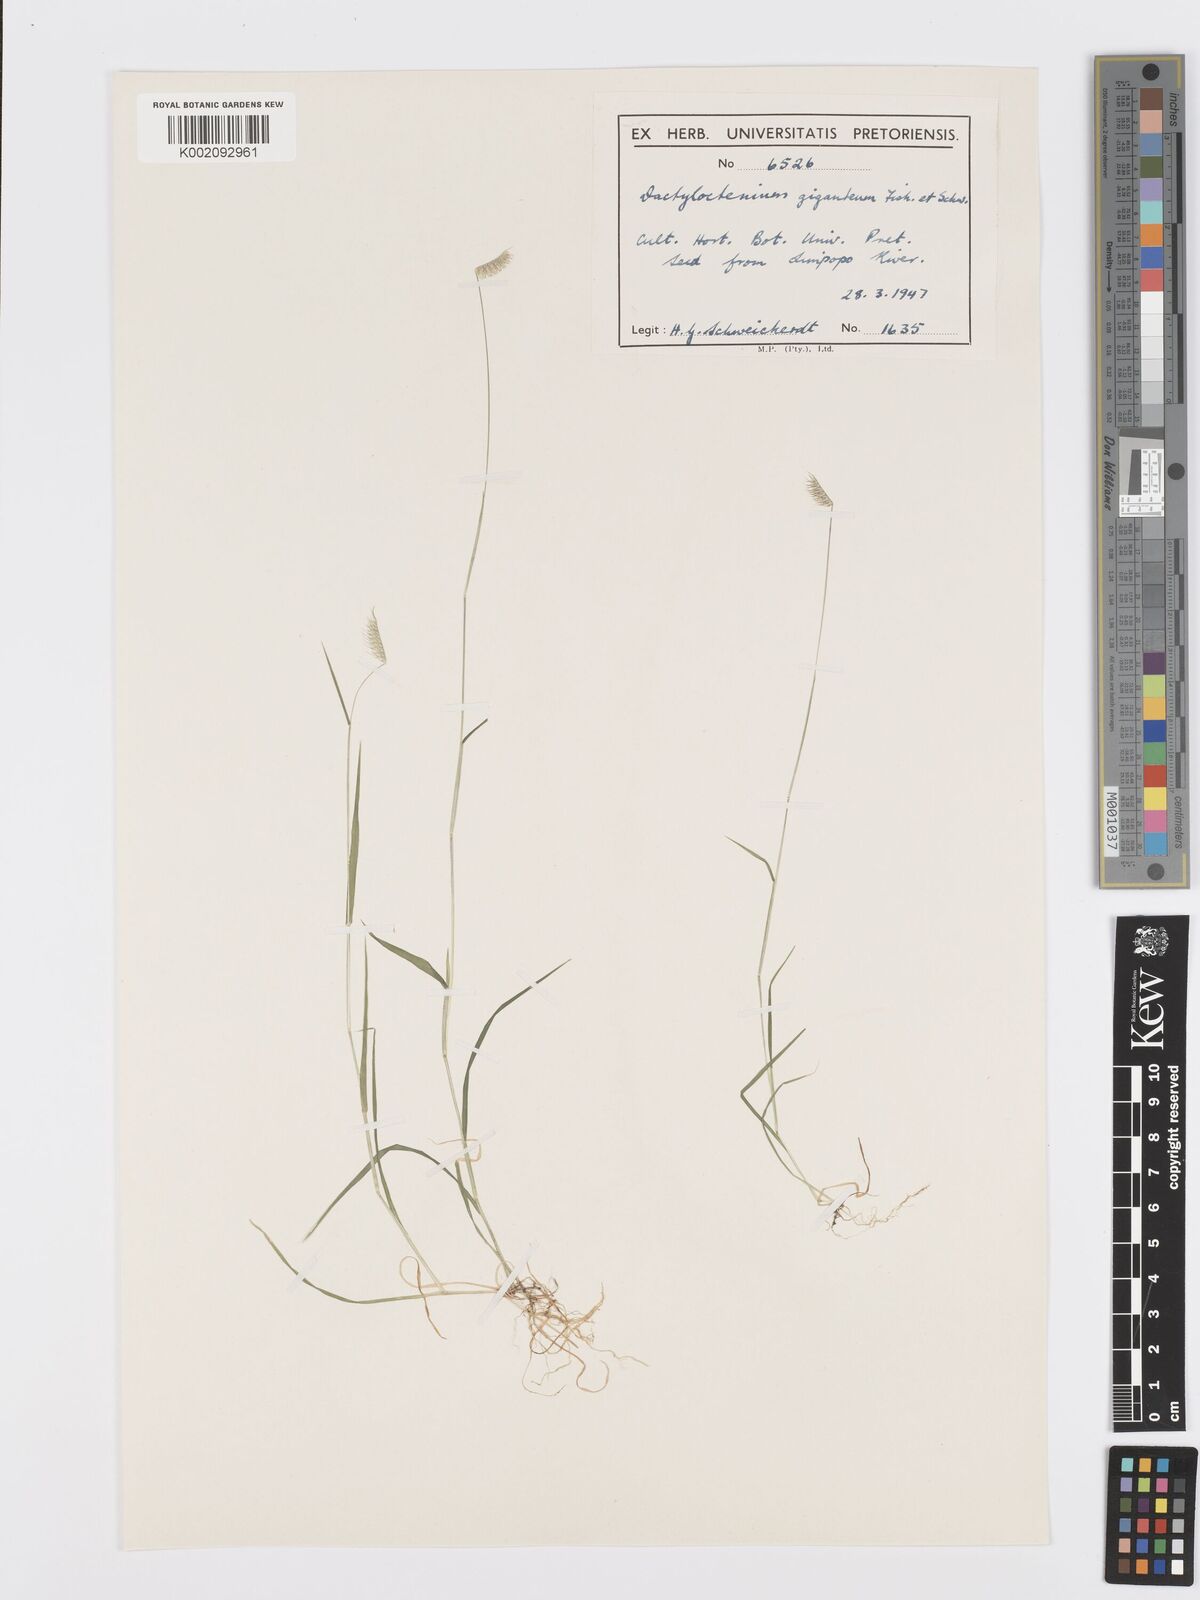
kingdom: Plantae
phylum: Tracheophyta
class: Liliopsida
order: Poales
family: Poaceae
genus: Dactyloctenium
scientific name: Dactyloctenium giganteum
